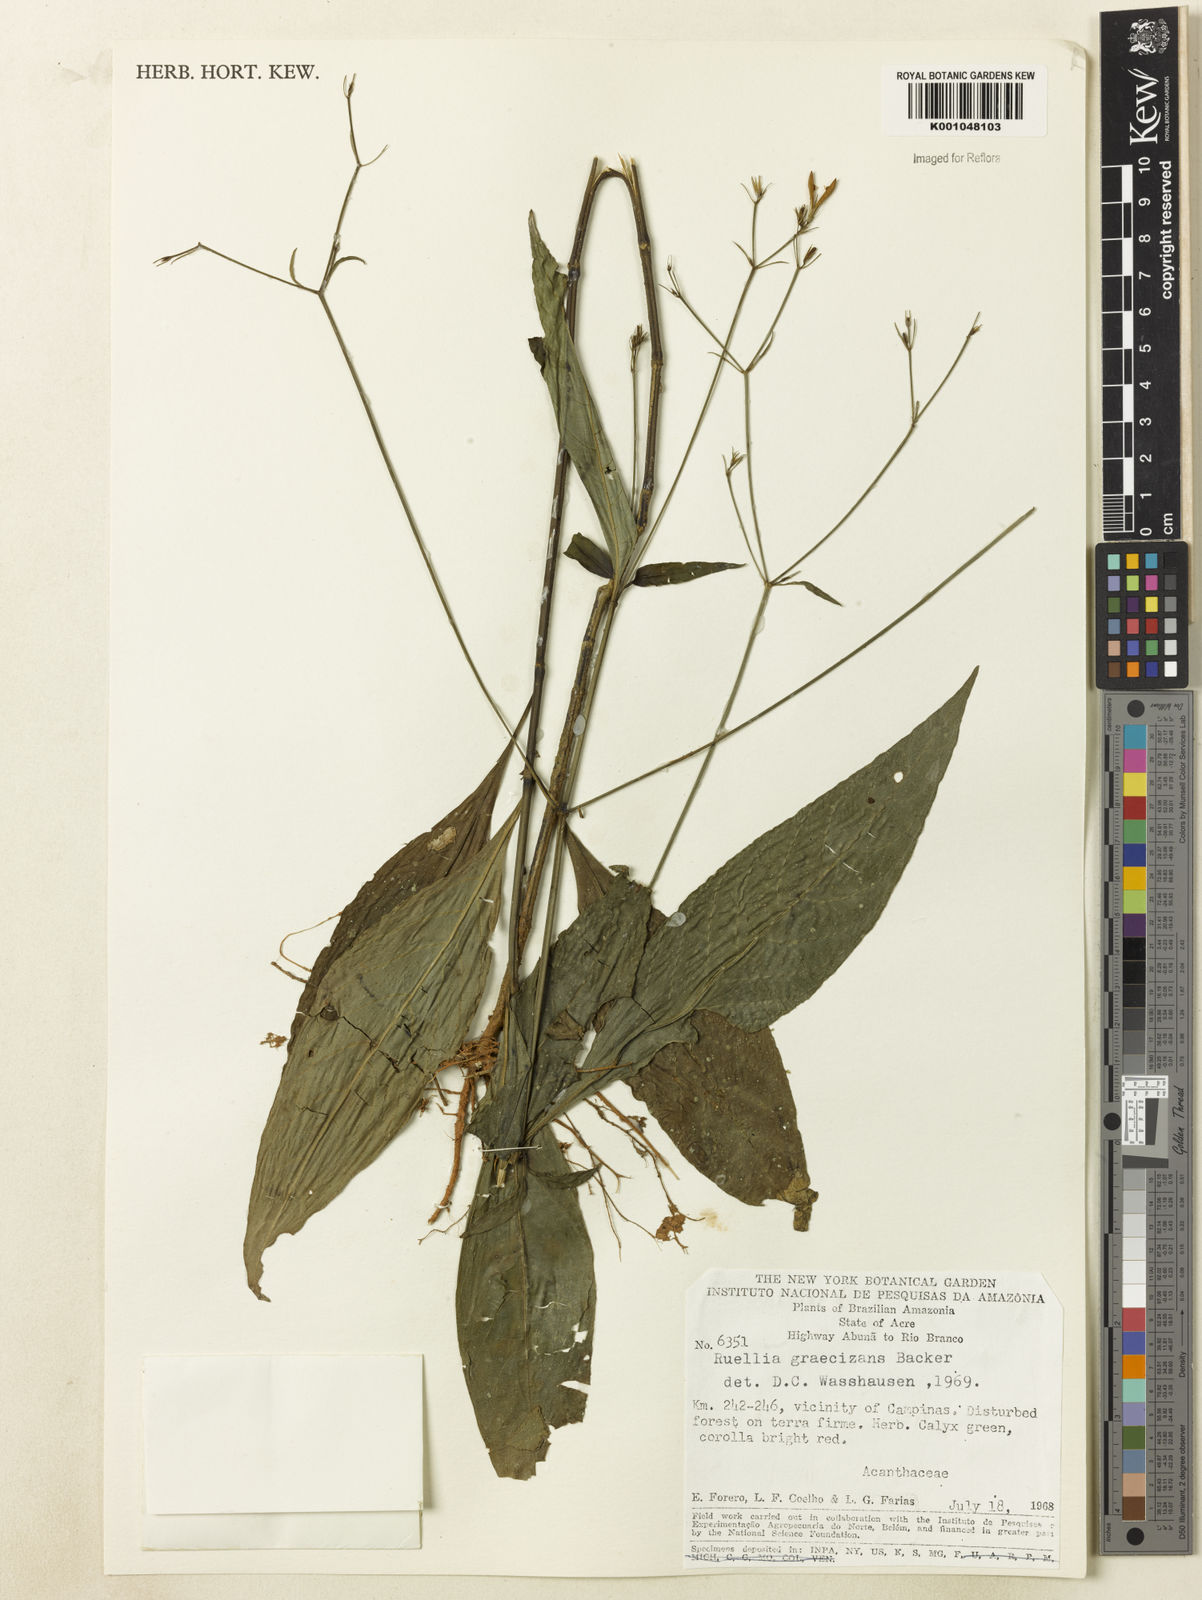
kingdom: Plantae
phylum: Tracheophyta
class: Magnoliopsida
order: Lamiales
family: Acanthaceae
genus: Ruellia
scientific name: Ruellia brevifolia
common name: Tropical wild petunia
